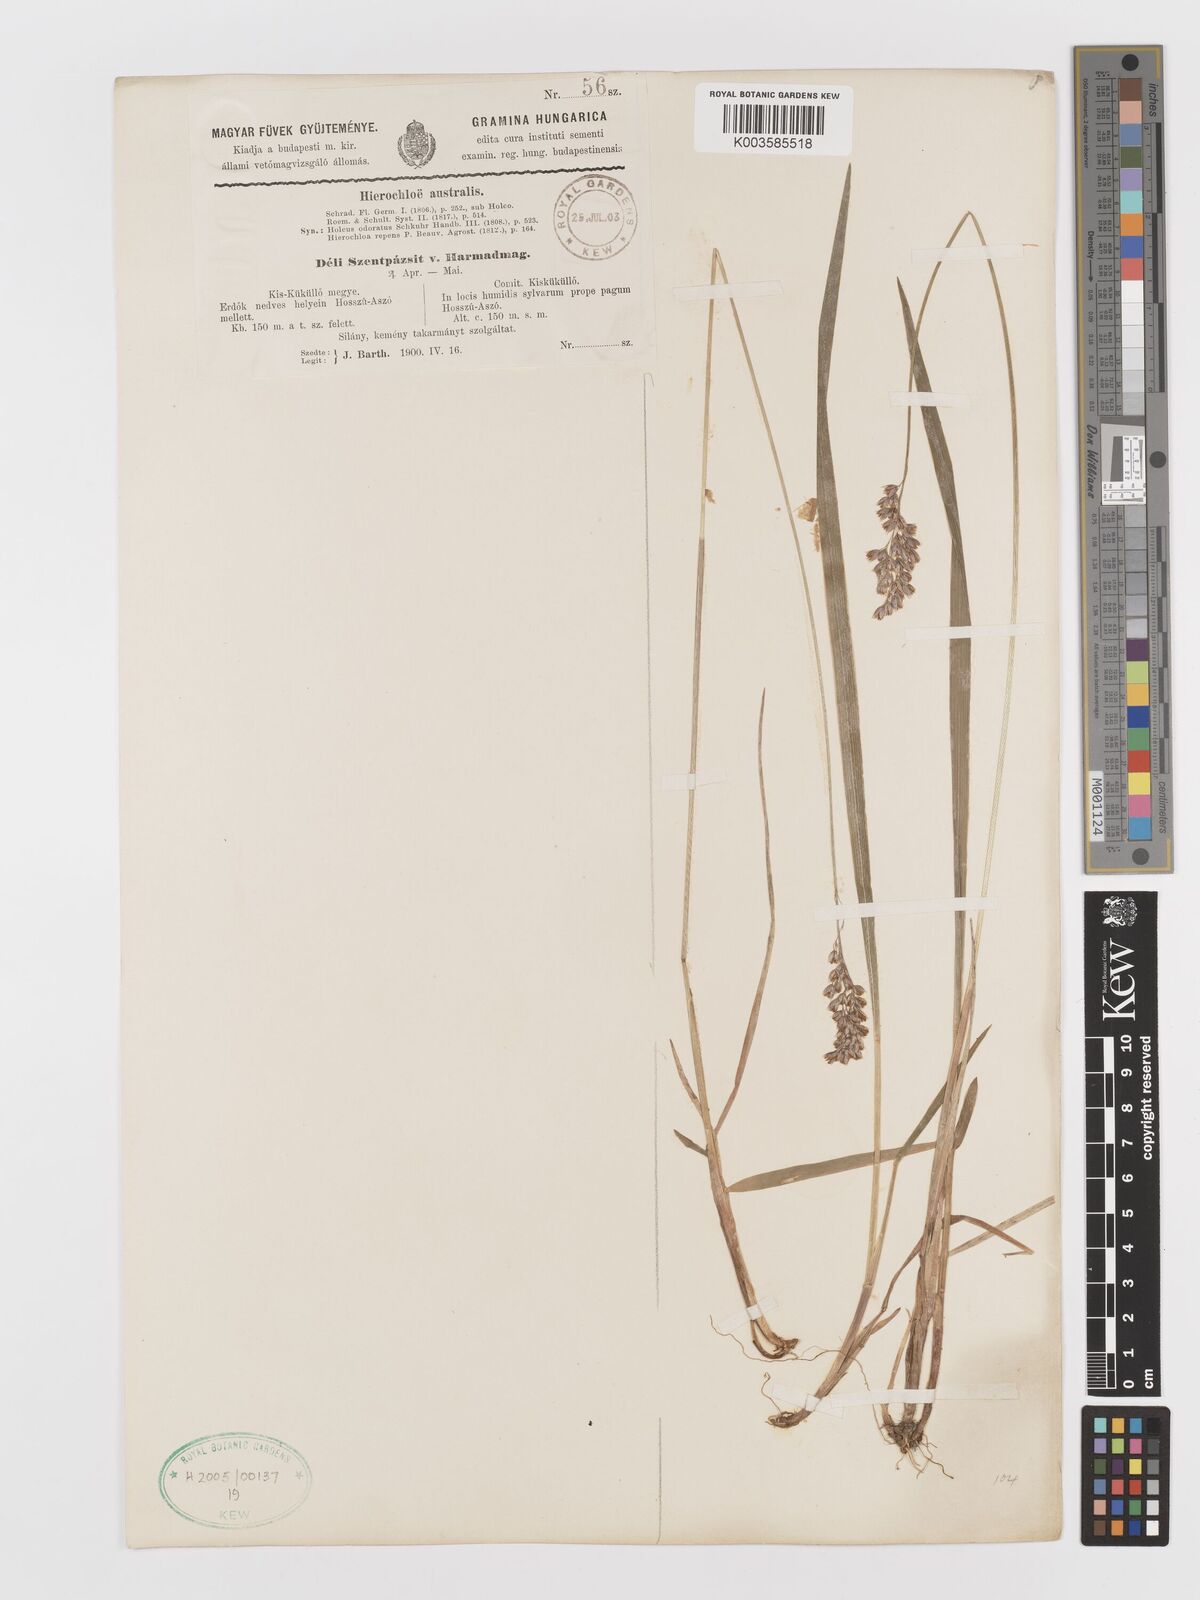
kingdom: Plantae
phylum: Tracheophyta
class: Liliopsida
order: Poales
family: Poaceae
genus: Anthoxanthum
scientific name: Anthoxanthum australe
